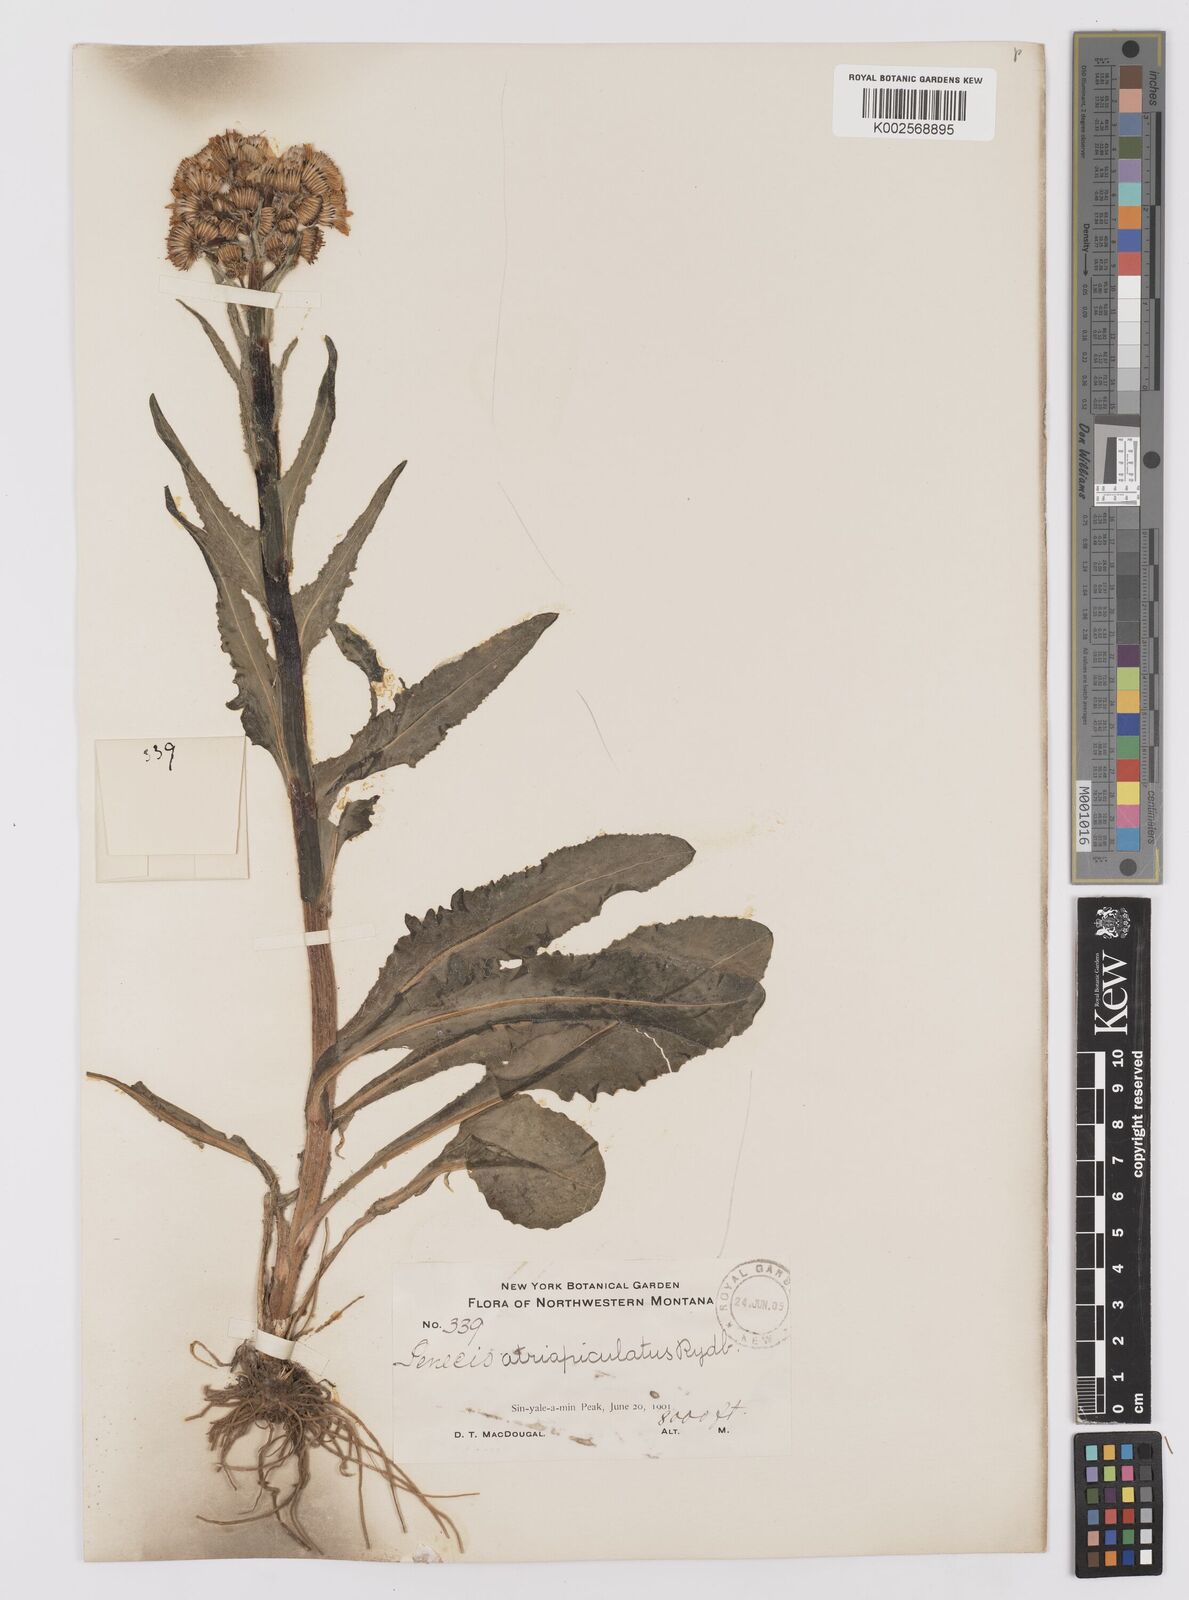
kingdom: Plantae
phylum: Tracheophyta
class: Magnoliopsida
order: Asterales
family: Asteraceae
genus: Senecio
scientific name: Senecio integerrimus
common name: Gaugeplant
